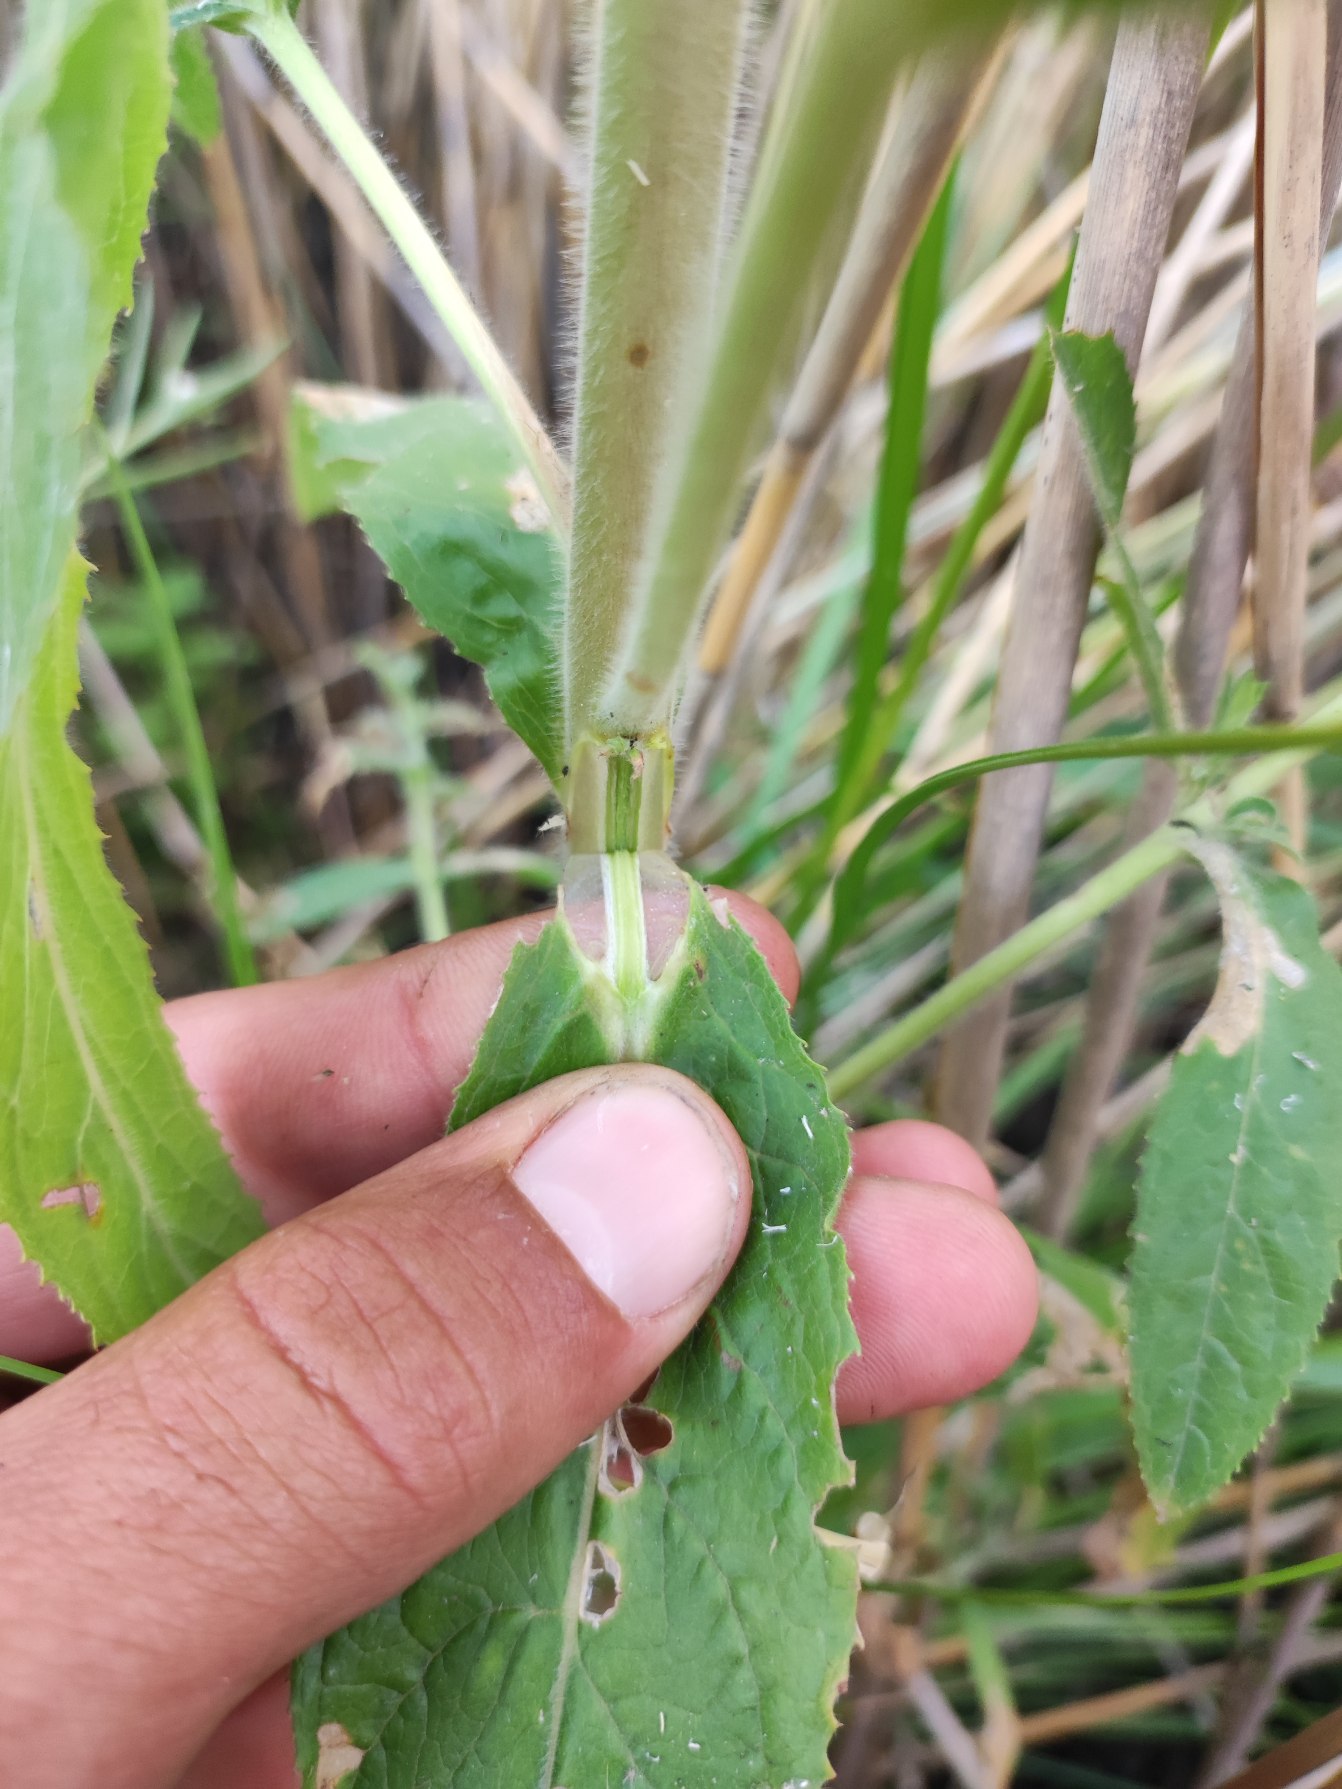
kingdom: Plantae
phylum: Tracheophyta
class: Magnoliopsida
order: Myrtales
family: Onagraceae
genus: Epilobium
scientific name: Epilobium hirsutum
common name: Lådden dueurt
